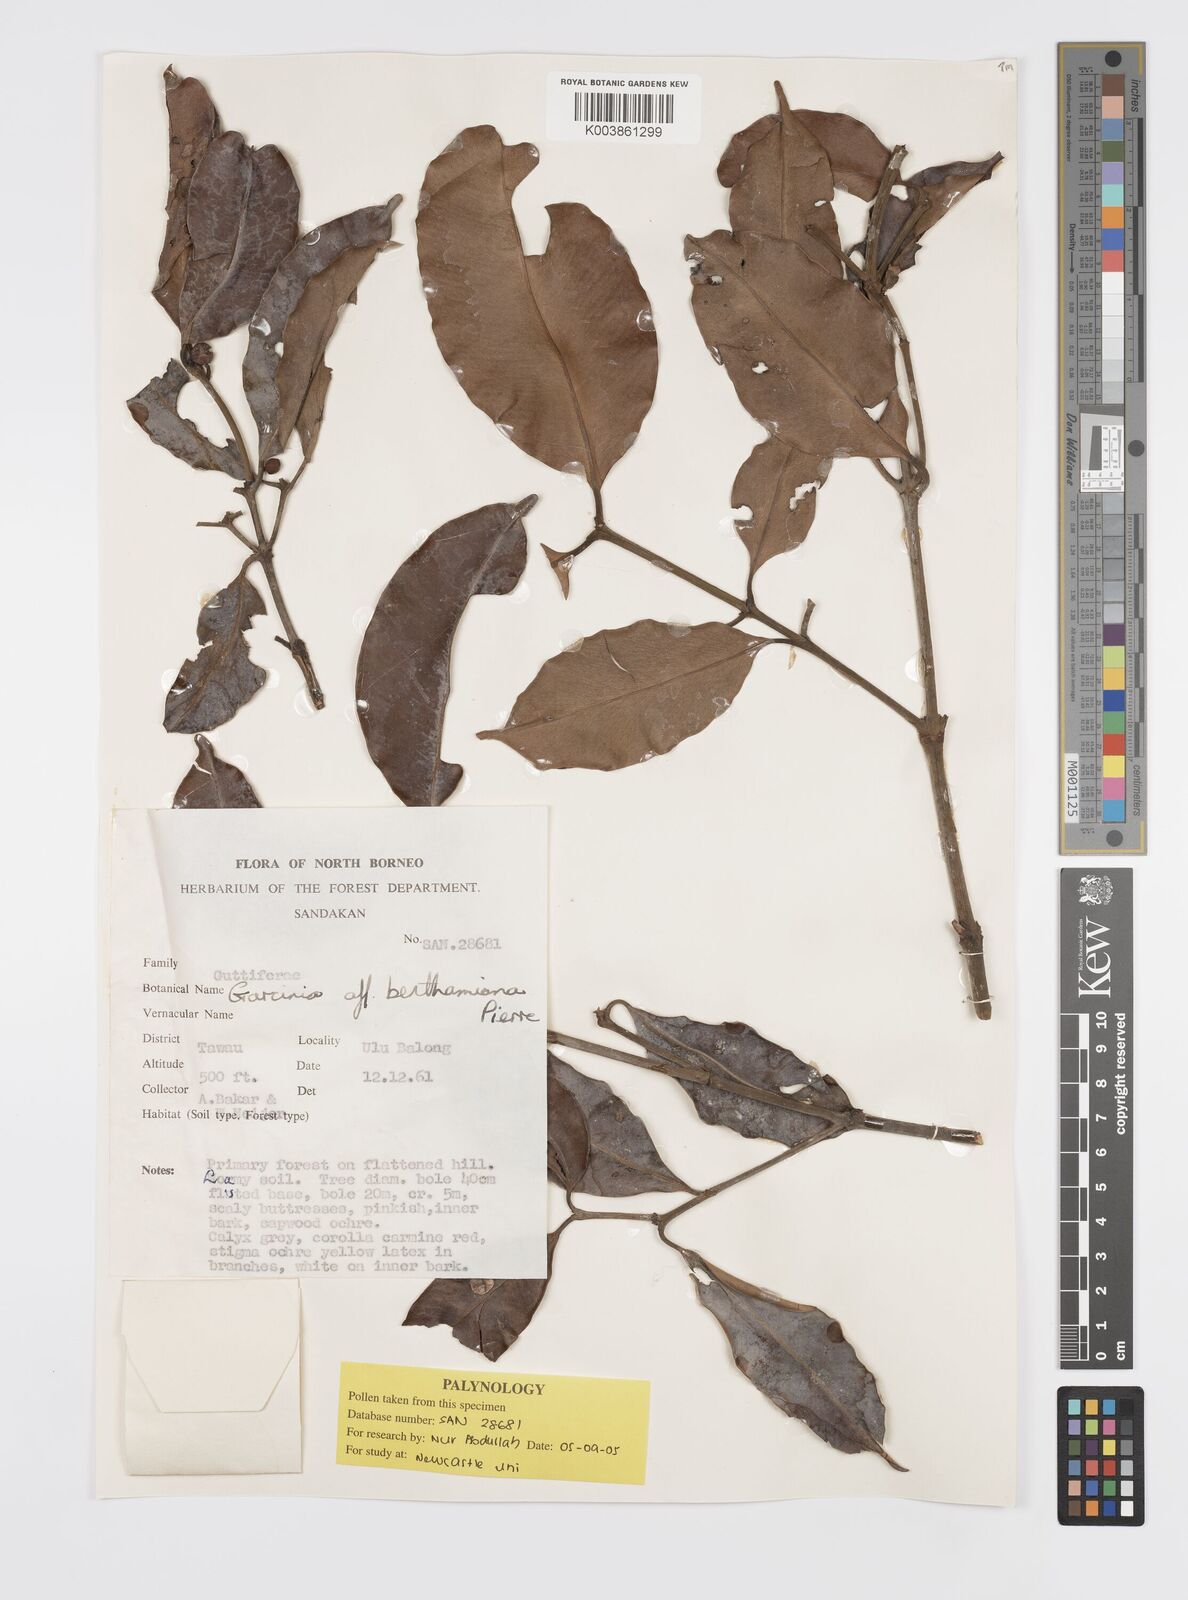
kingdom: Plantae
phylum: Tracheophyta
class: Magnoliopsida
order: Malpighiales
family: Clusiaceae
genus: Garcinia
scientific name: Garcinia sangudsangud
